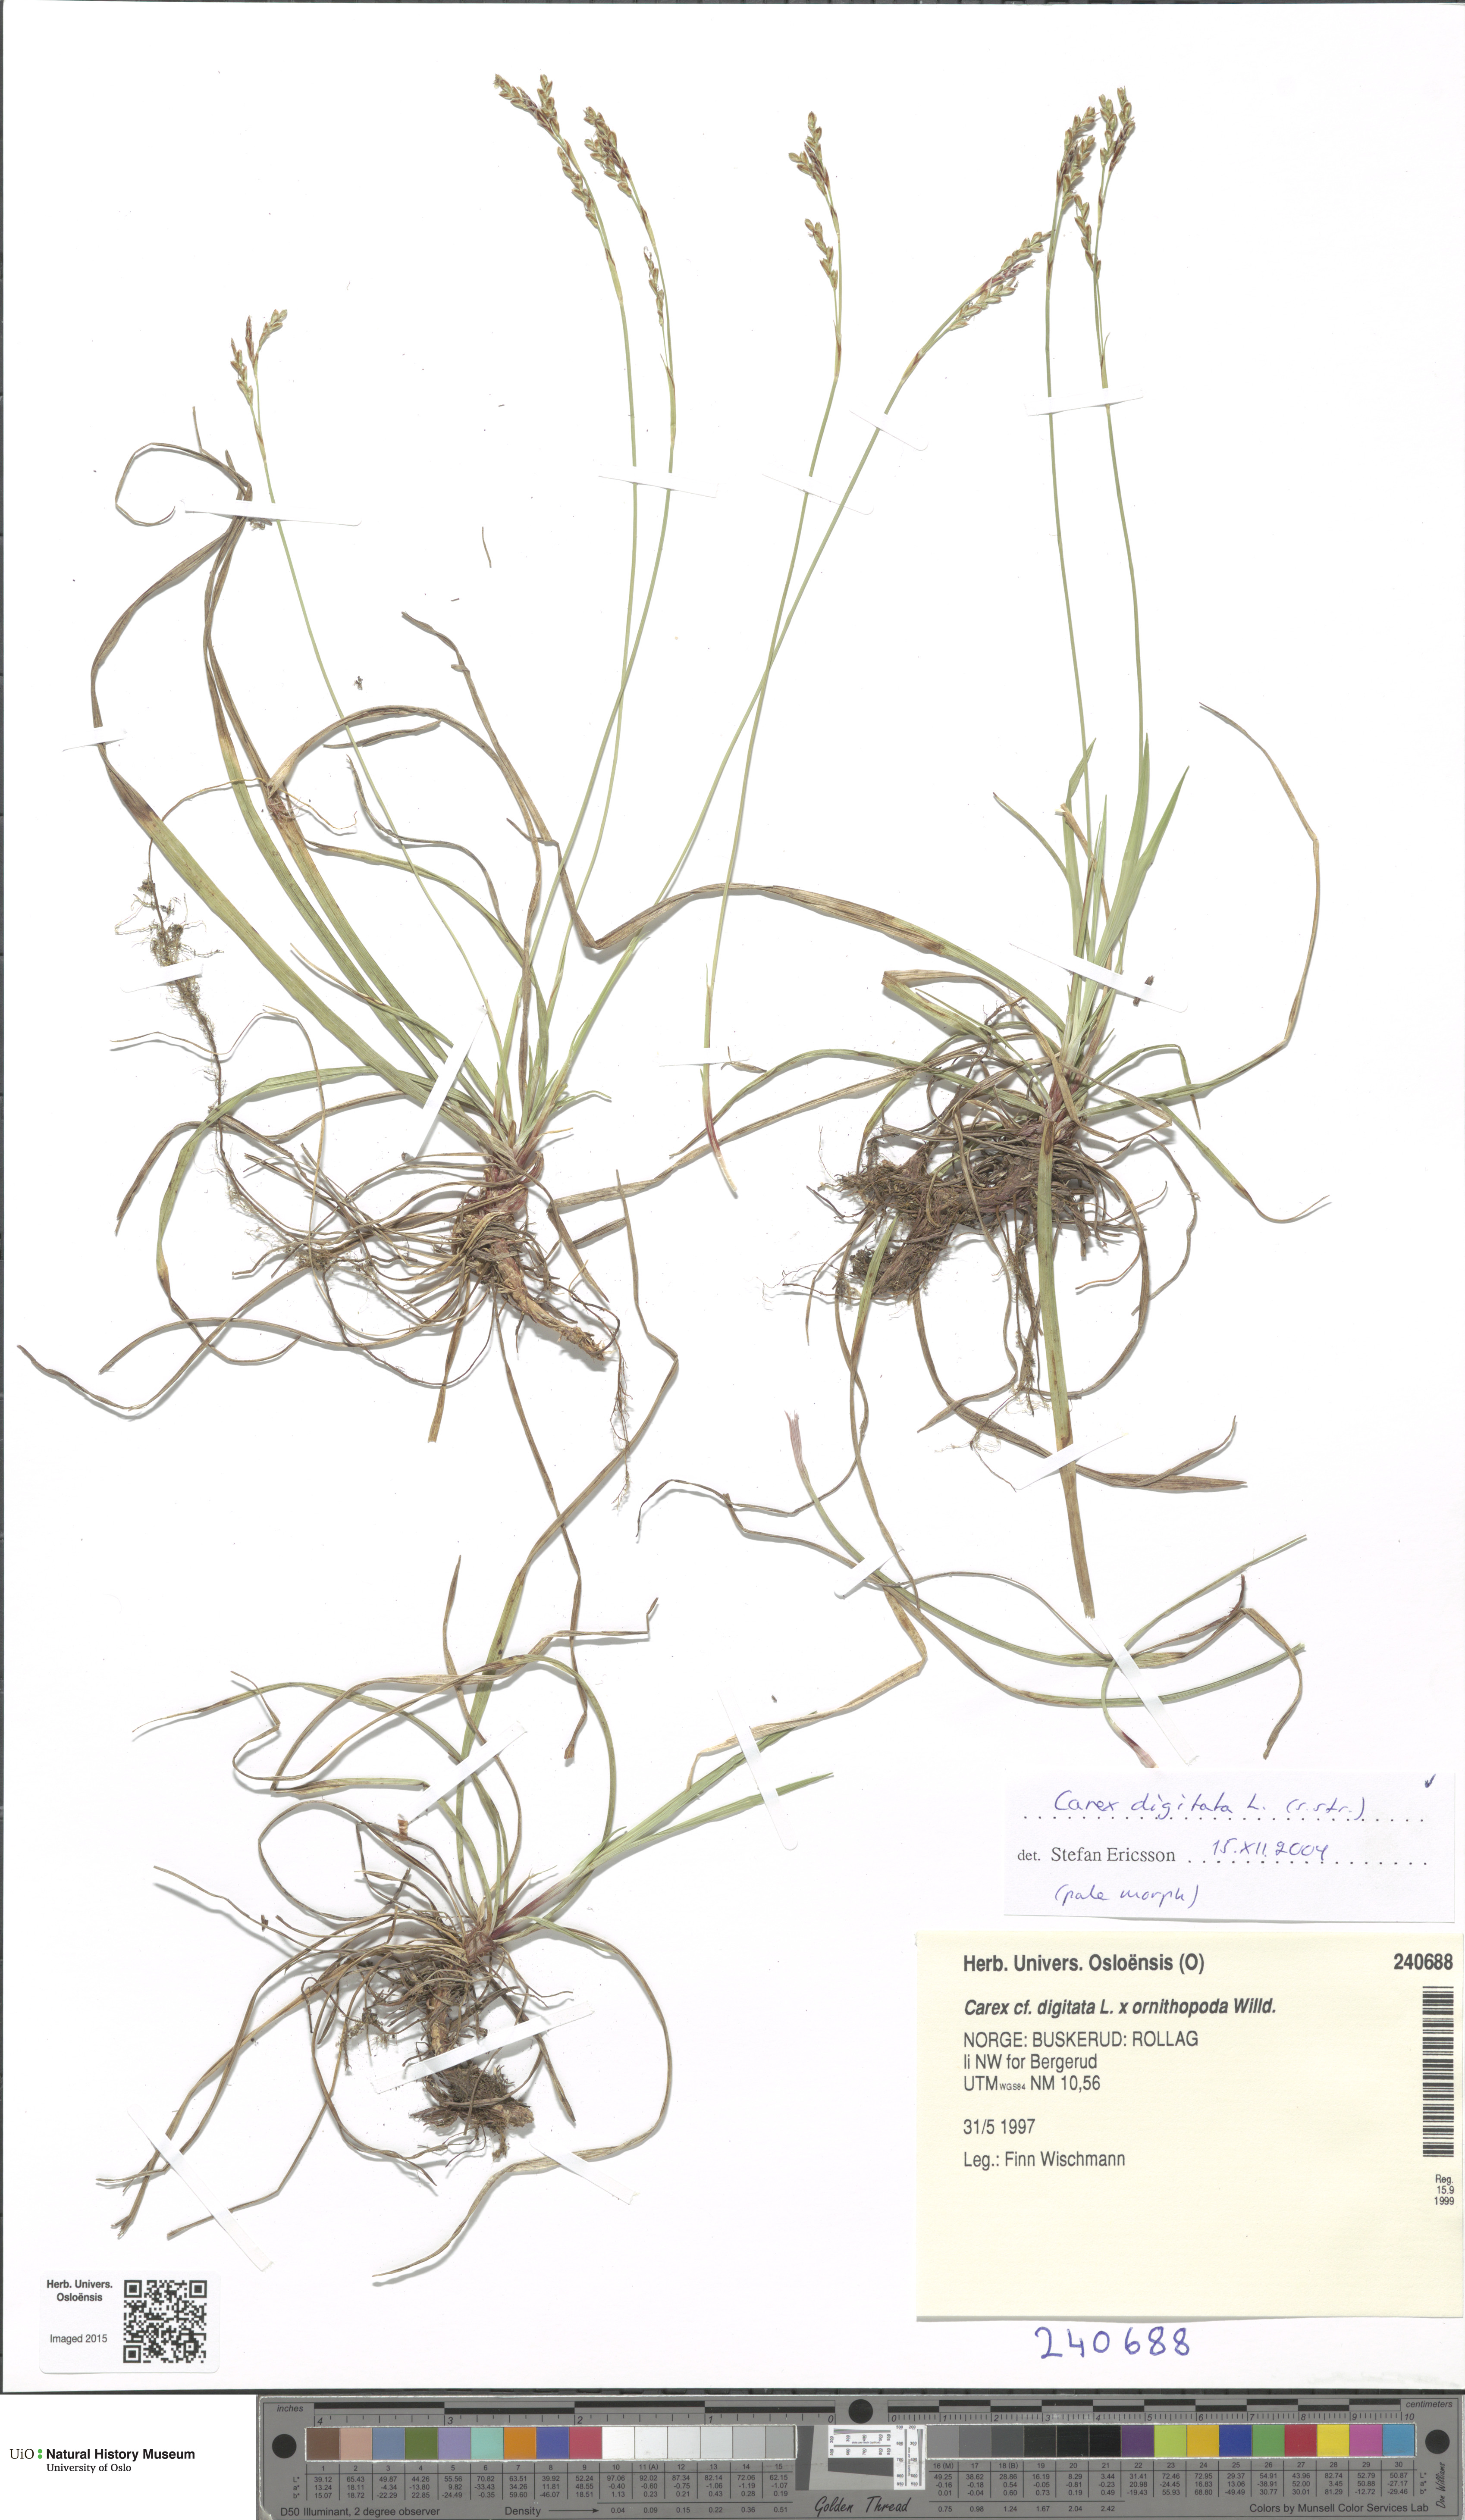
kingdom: Plantae
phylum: Tracheophyta
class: Liliopsida
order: Poales
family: Cyperaceae
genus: Carex
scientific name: Carex digitata
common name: Fingered sedge
